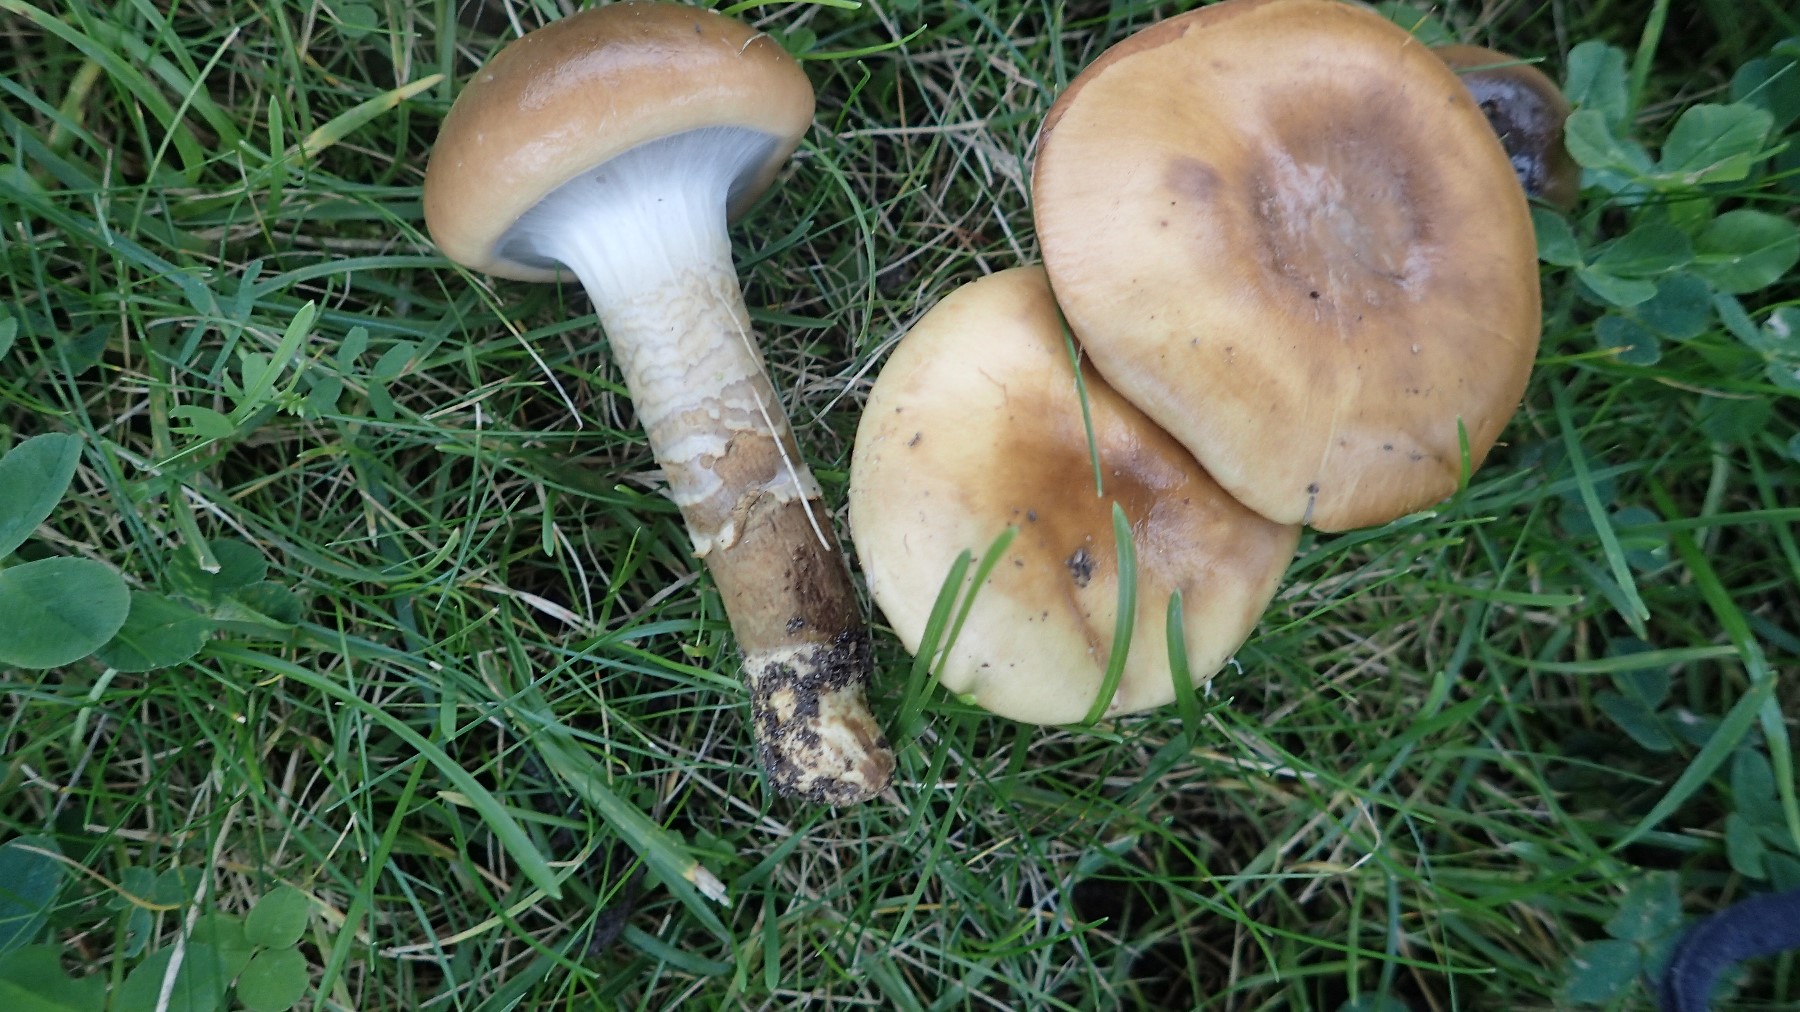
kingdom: Fungi
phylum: Basidiomycota
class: Agaricomycetes
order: Agaricales
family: Cortinariaceae
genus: Cortinarius
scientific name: Cortinarius trivialis
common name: Girdled webcap
